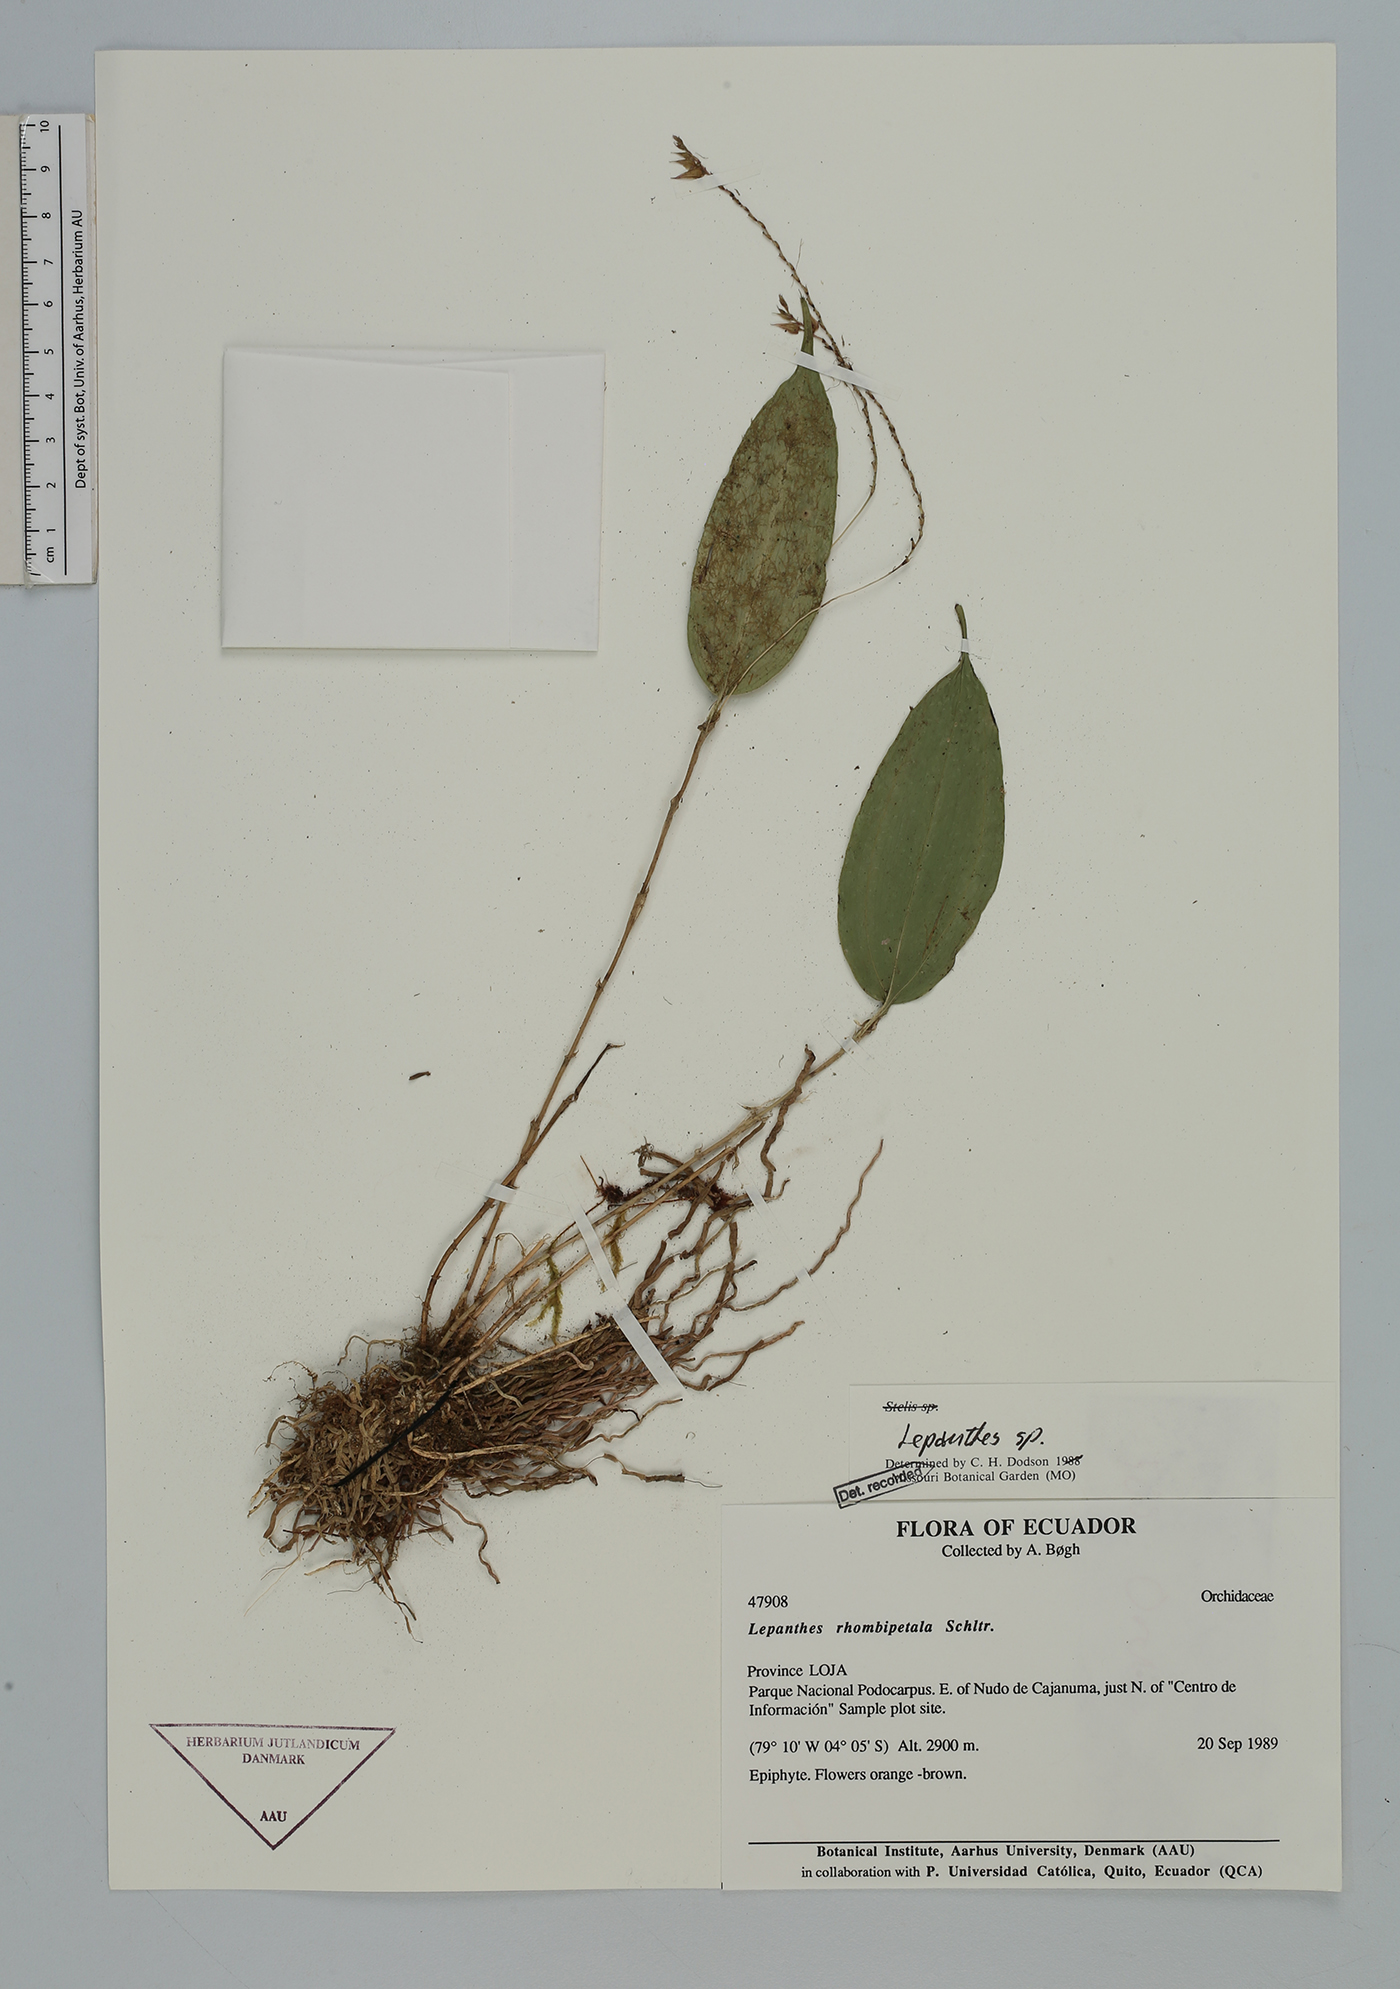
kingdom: Plantae
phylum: Tracheophyta
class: Liliopsida
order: Asparagales
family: Orchidaceae
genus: Lepanthes
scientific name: Lepanthes
